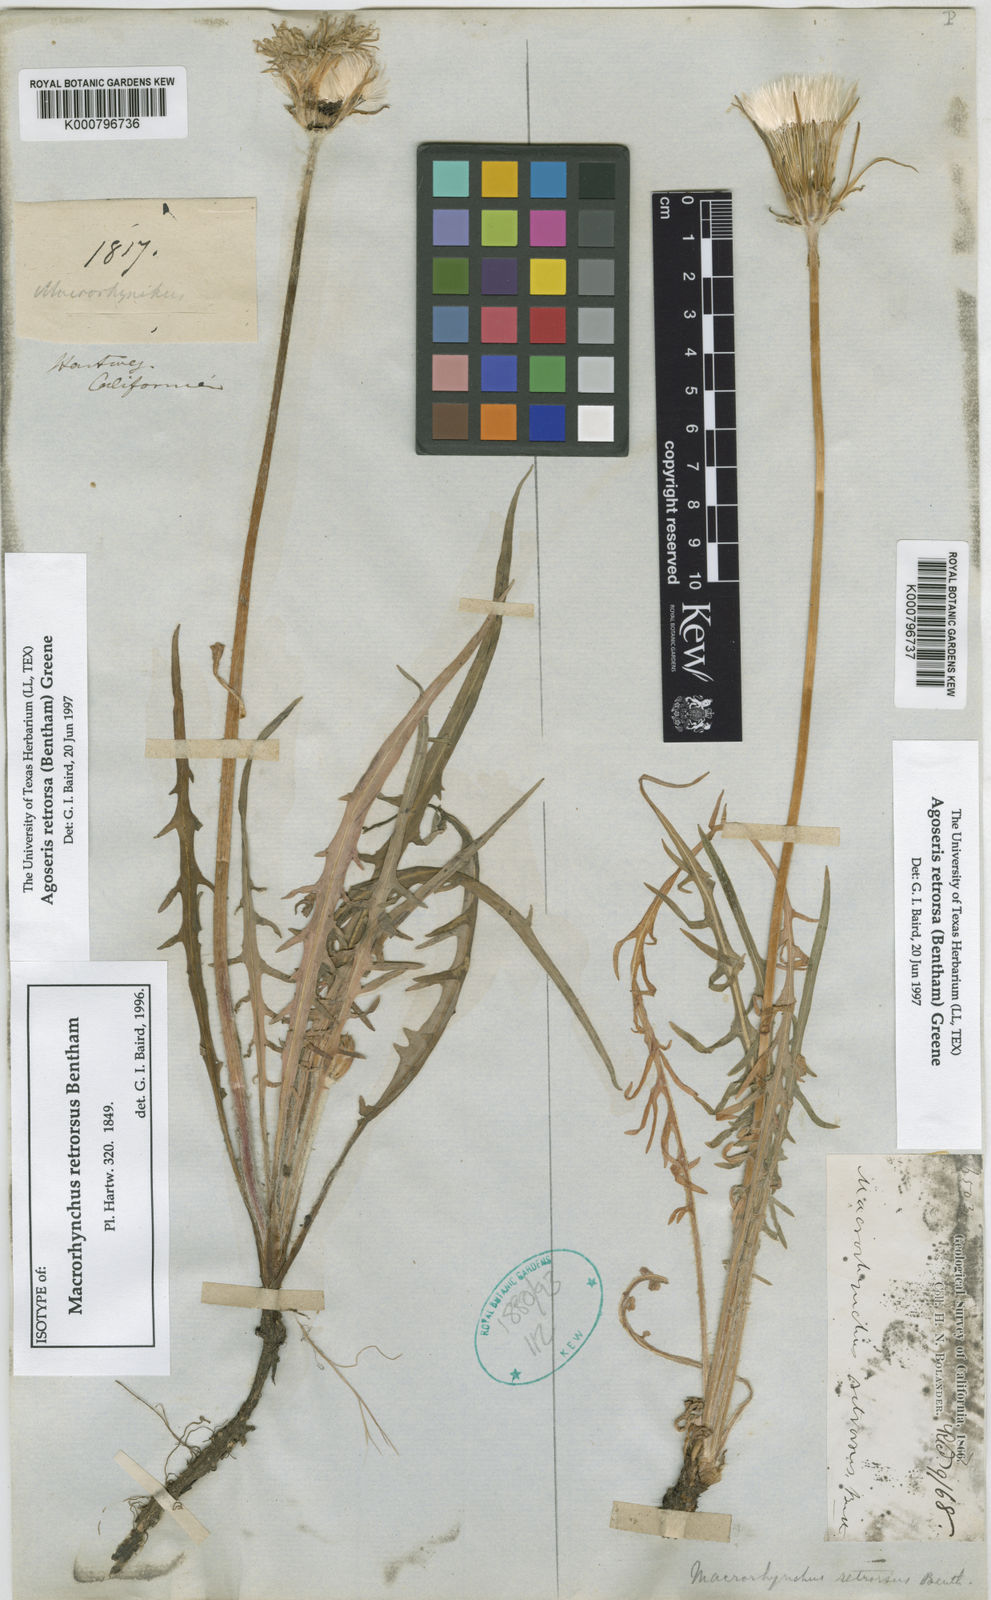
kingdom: Plantae
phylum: Tracheophyta
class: Magnoliopsida
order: Asterales
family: Asteraceae
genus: Agoseris
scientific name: Agoseris retrorsa
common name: Spearleaf agoseris
